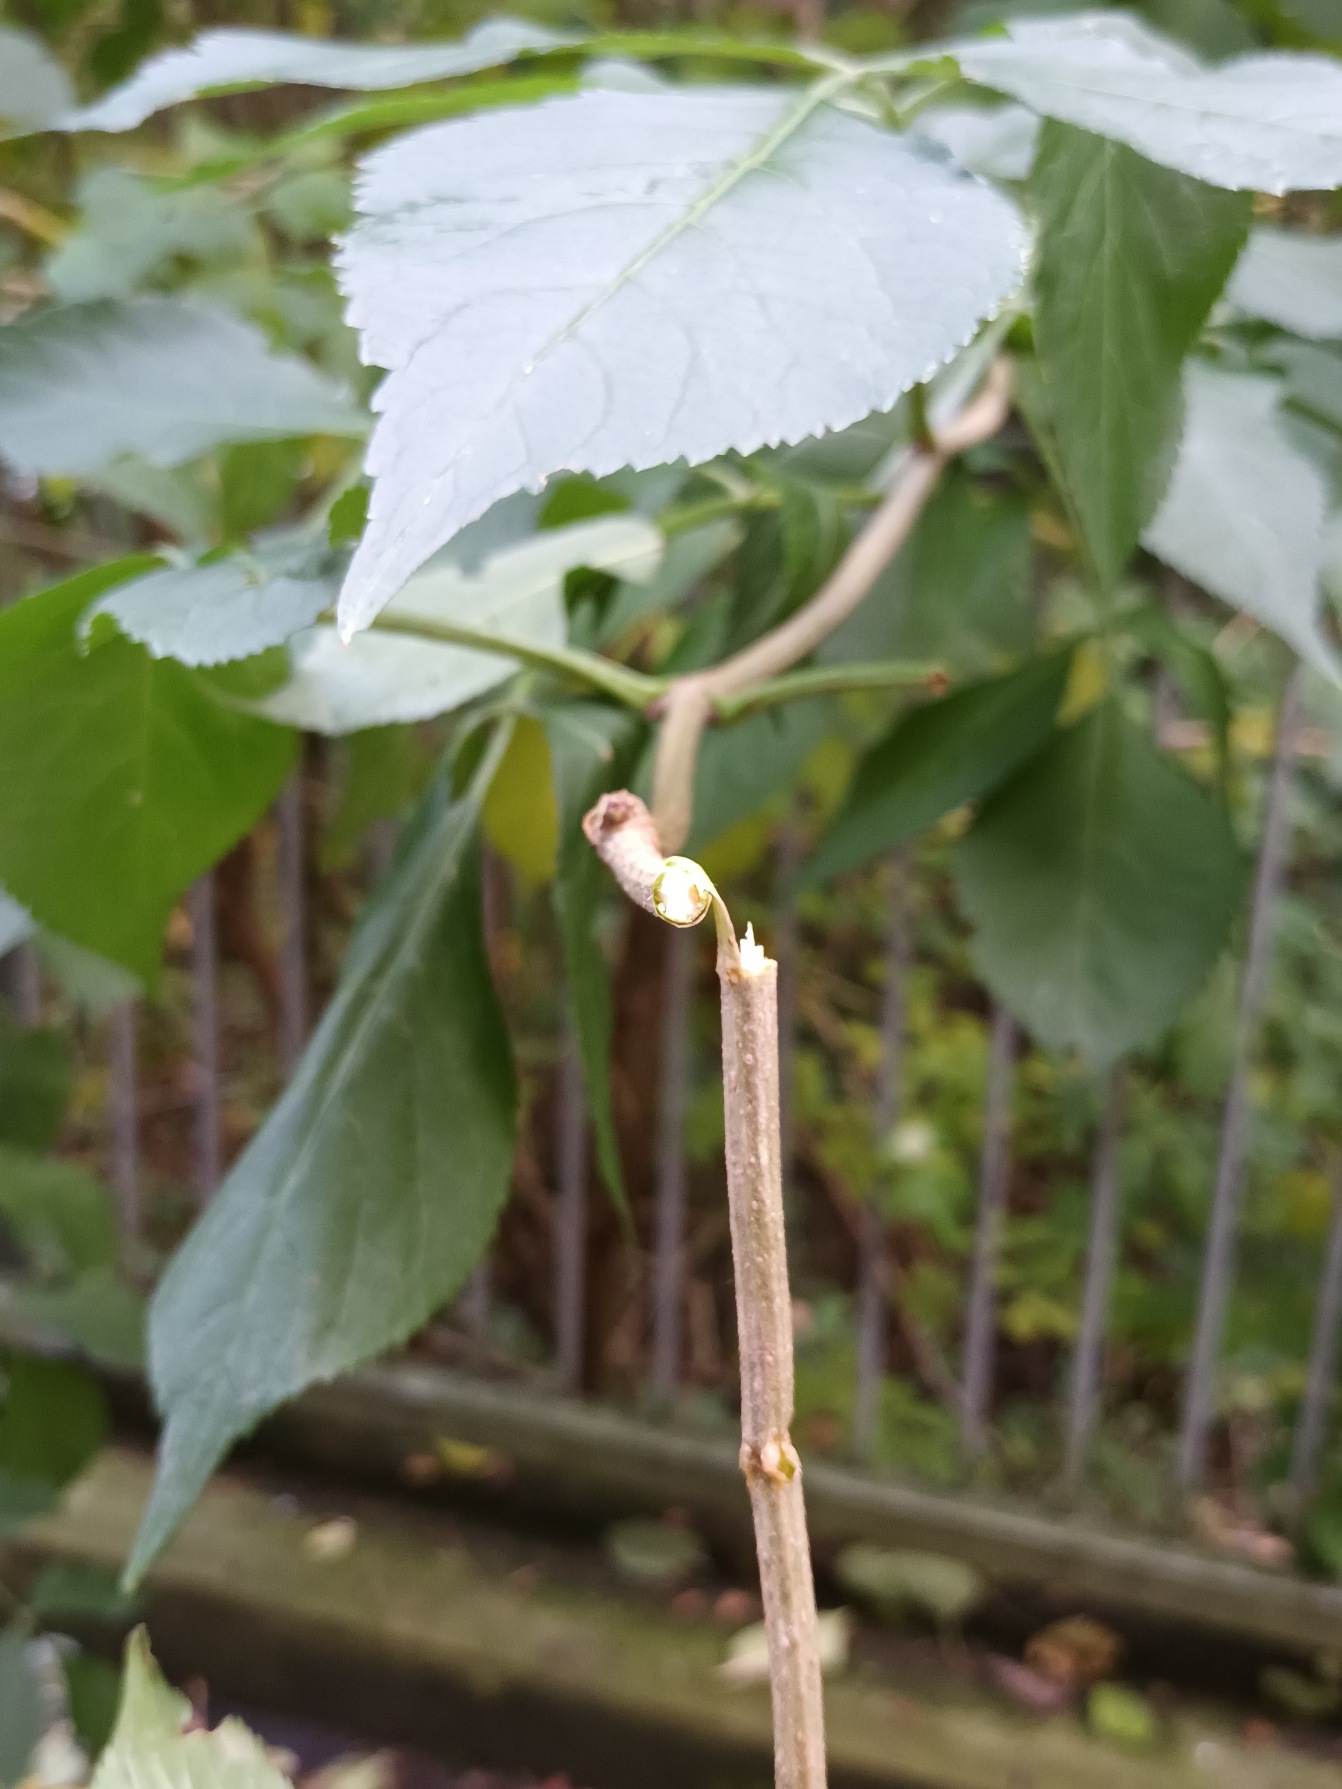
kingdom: Plantae
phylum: Tracheophyta
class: Magnoliopsida
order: Dipsacales
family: Viburnaceae
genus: Sambucus
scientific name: Sambucus nigra
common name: Almindelig hyld
